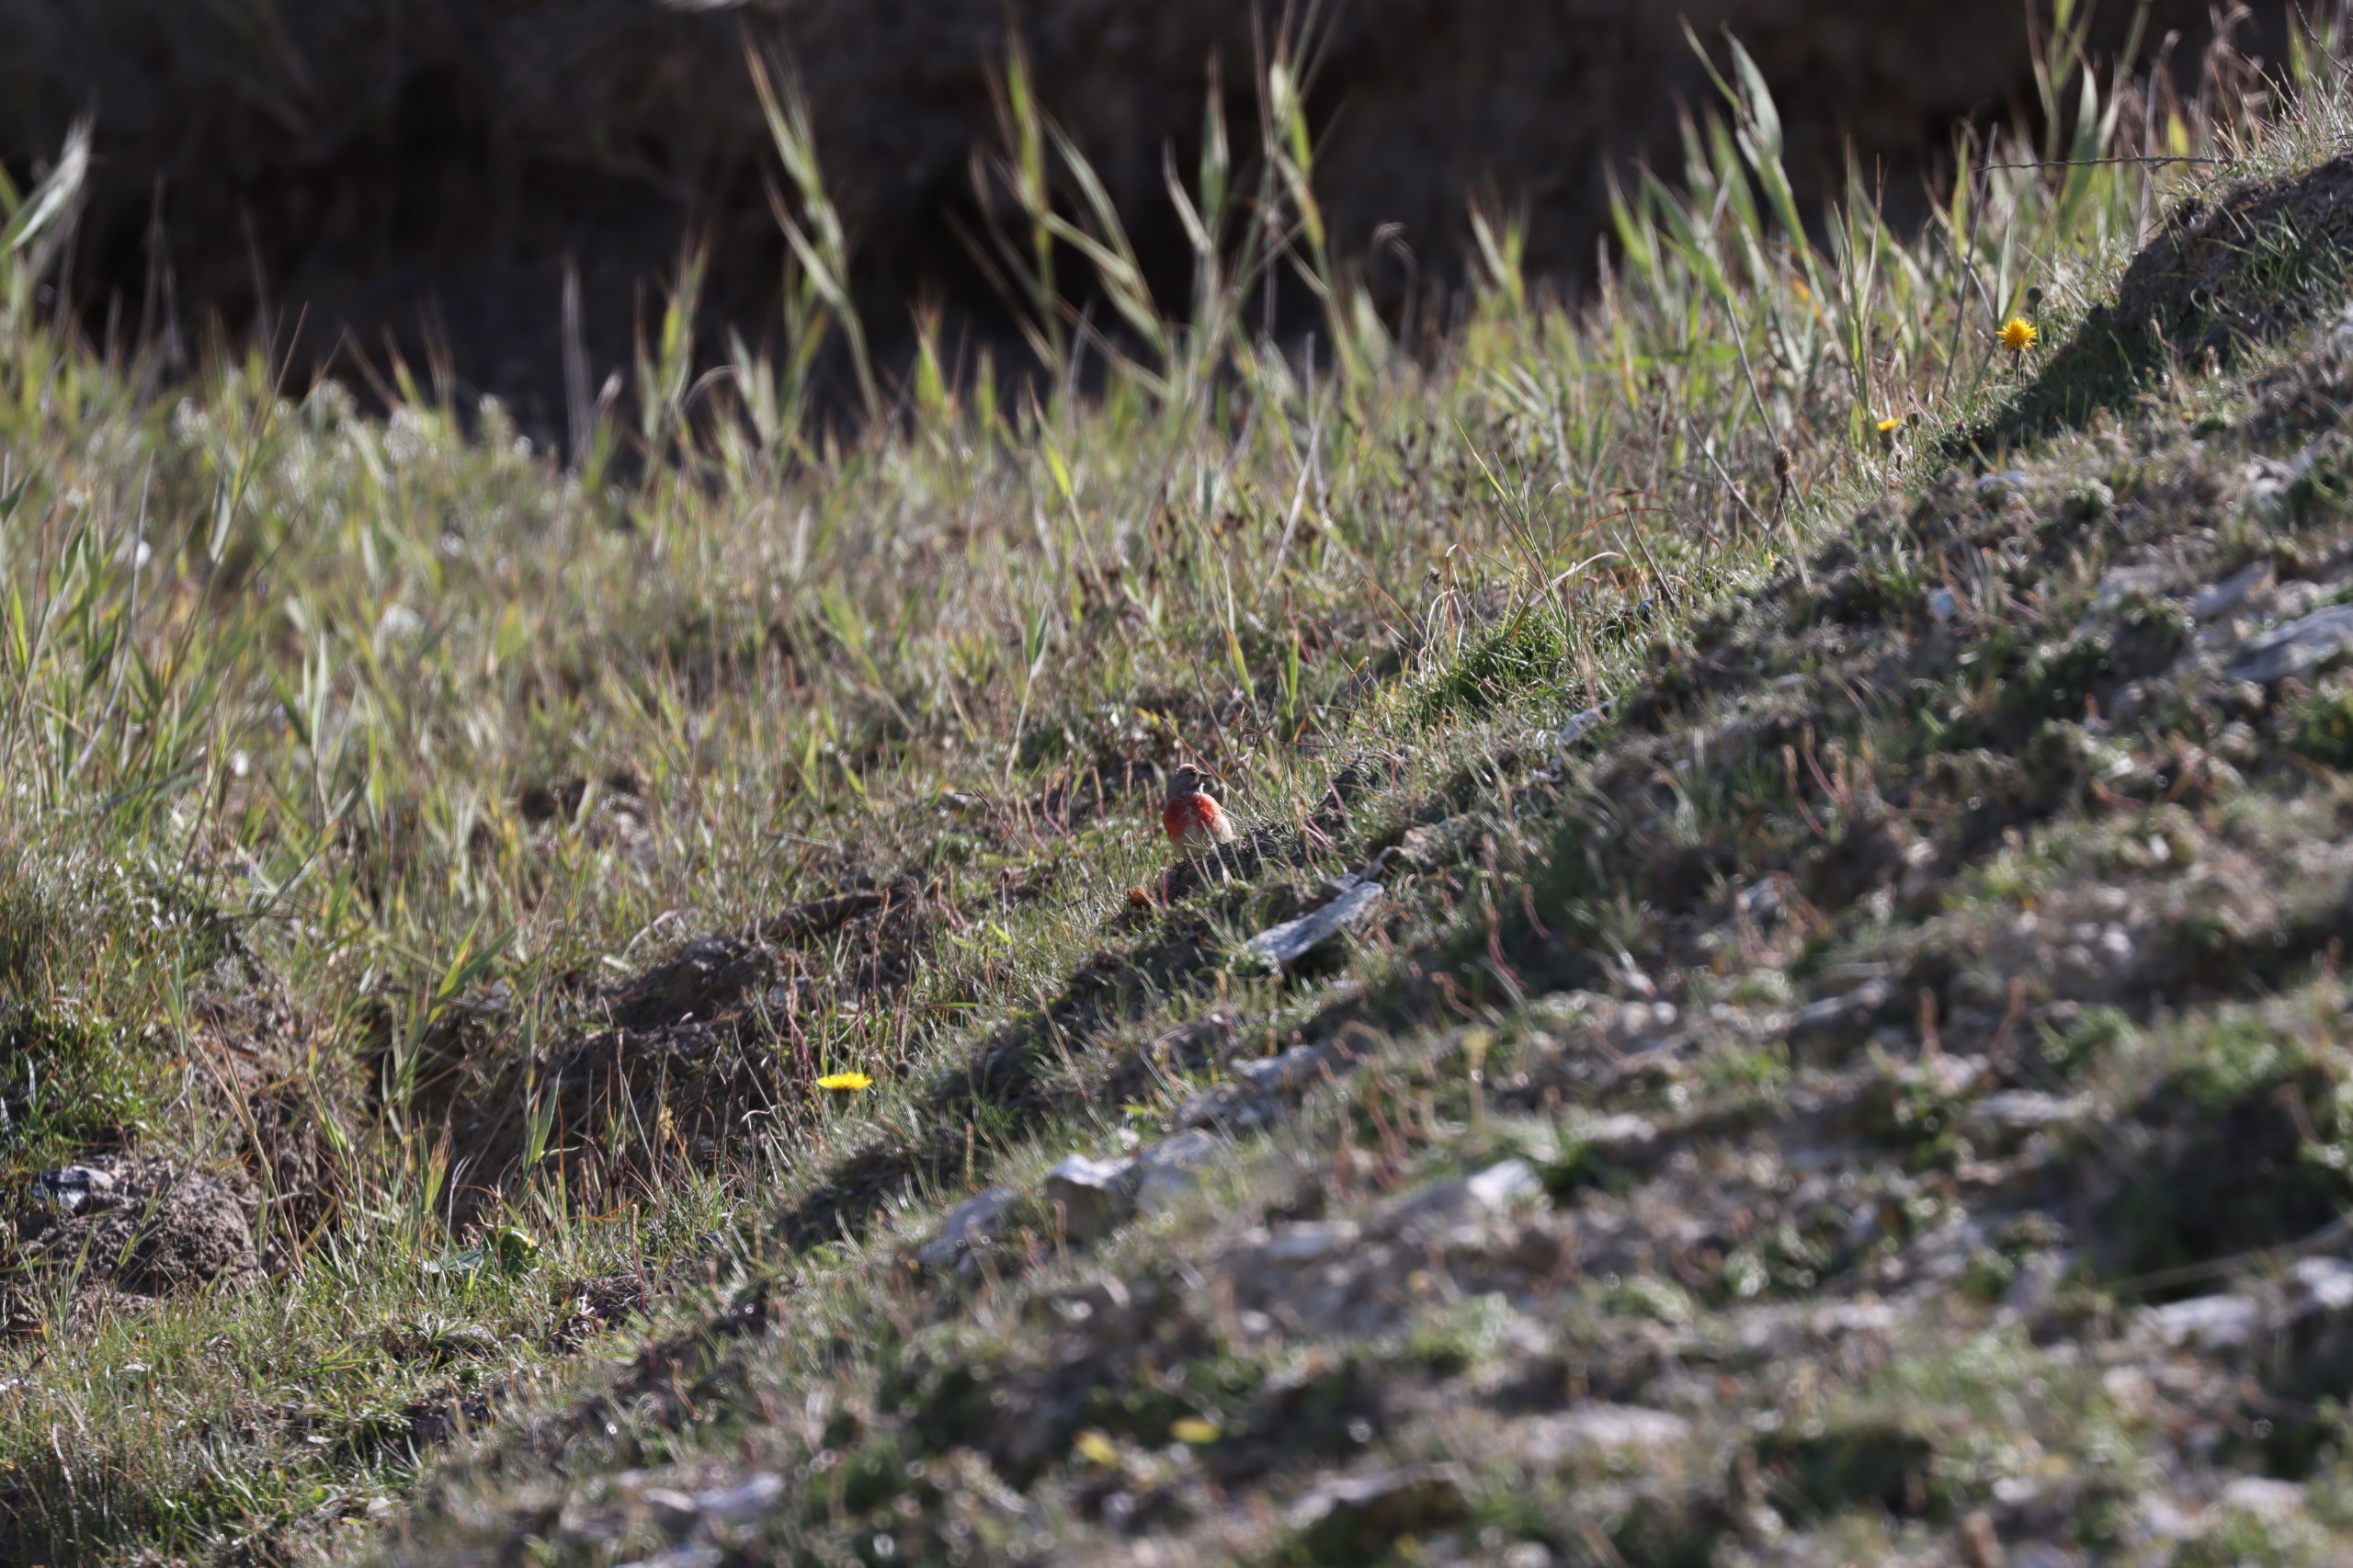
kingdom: Animalia
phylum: Chordata
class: Aves
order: Passeriformes
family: Fringillidae
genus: Linaria
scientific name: Linaria cannabina
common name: Tornirisk
